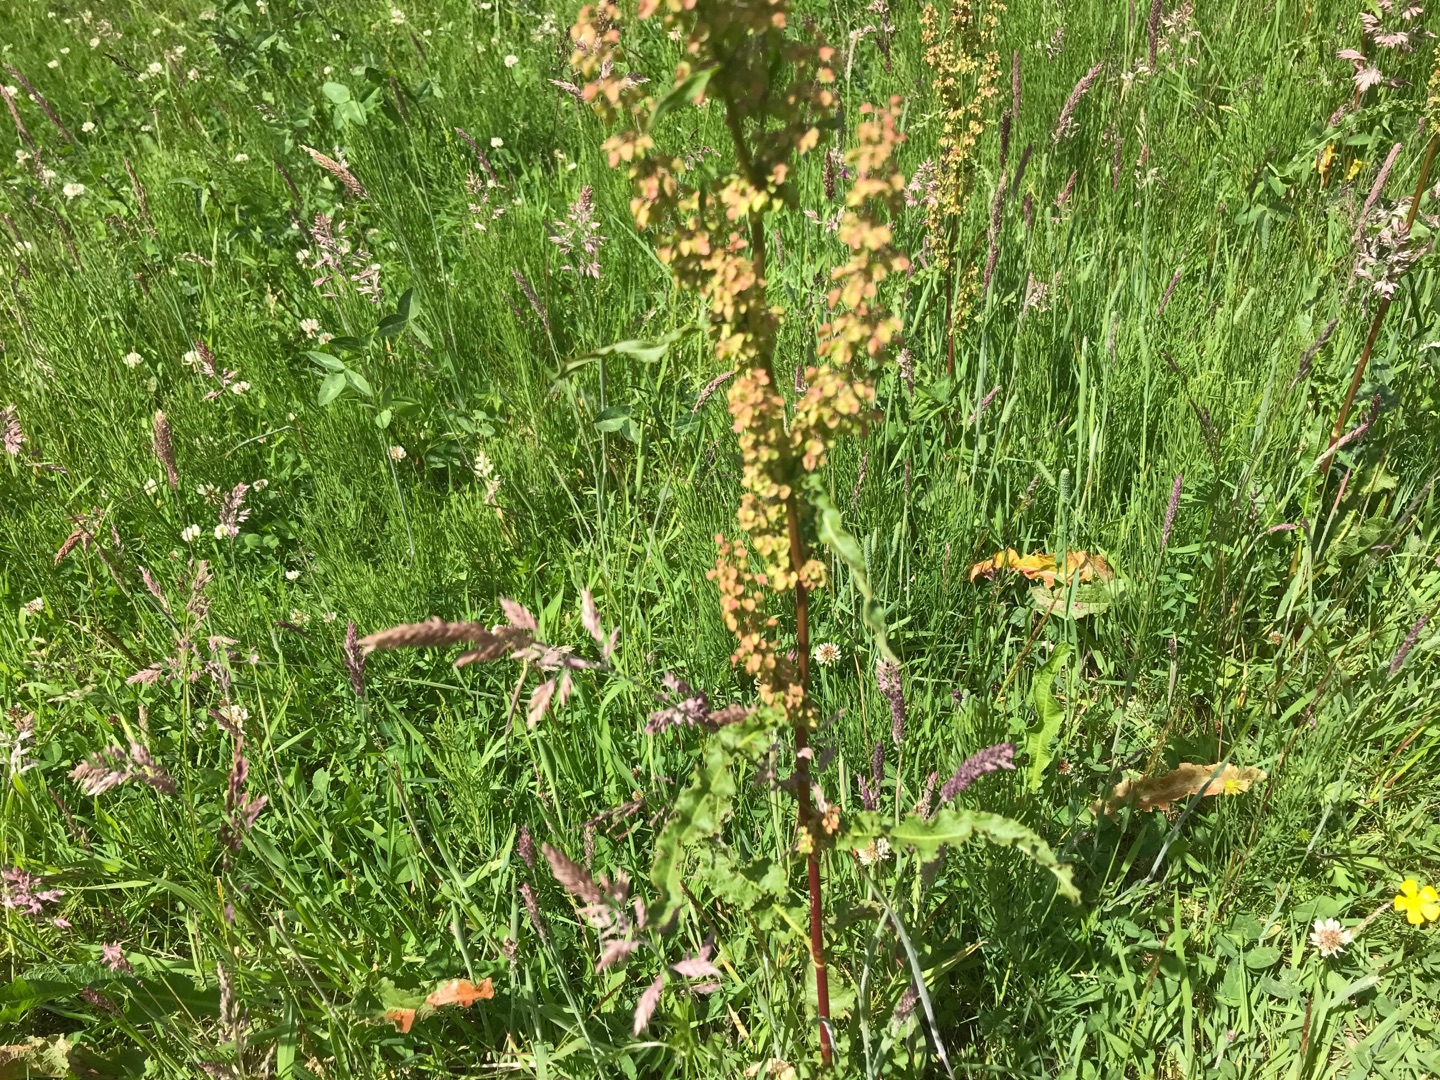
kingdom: Plantae
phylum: Tracheophyta
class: Magnoliopsida
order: Caryophyllales
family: Polygonaceae
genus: Rumex
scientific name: Rumex crispus
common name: Kruset skræppe
